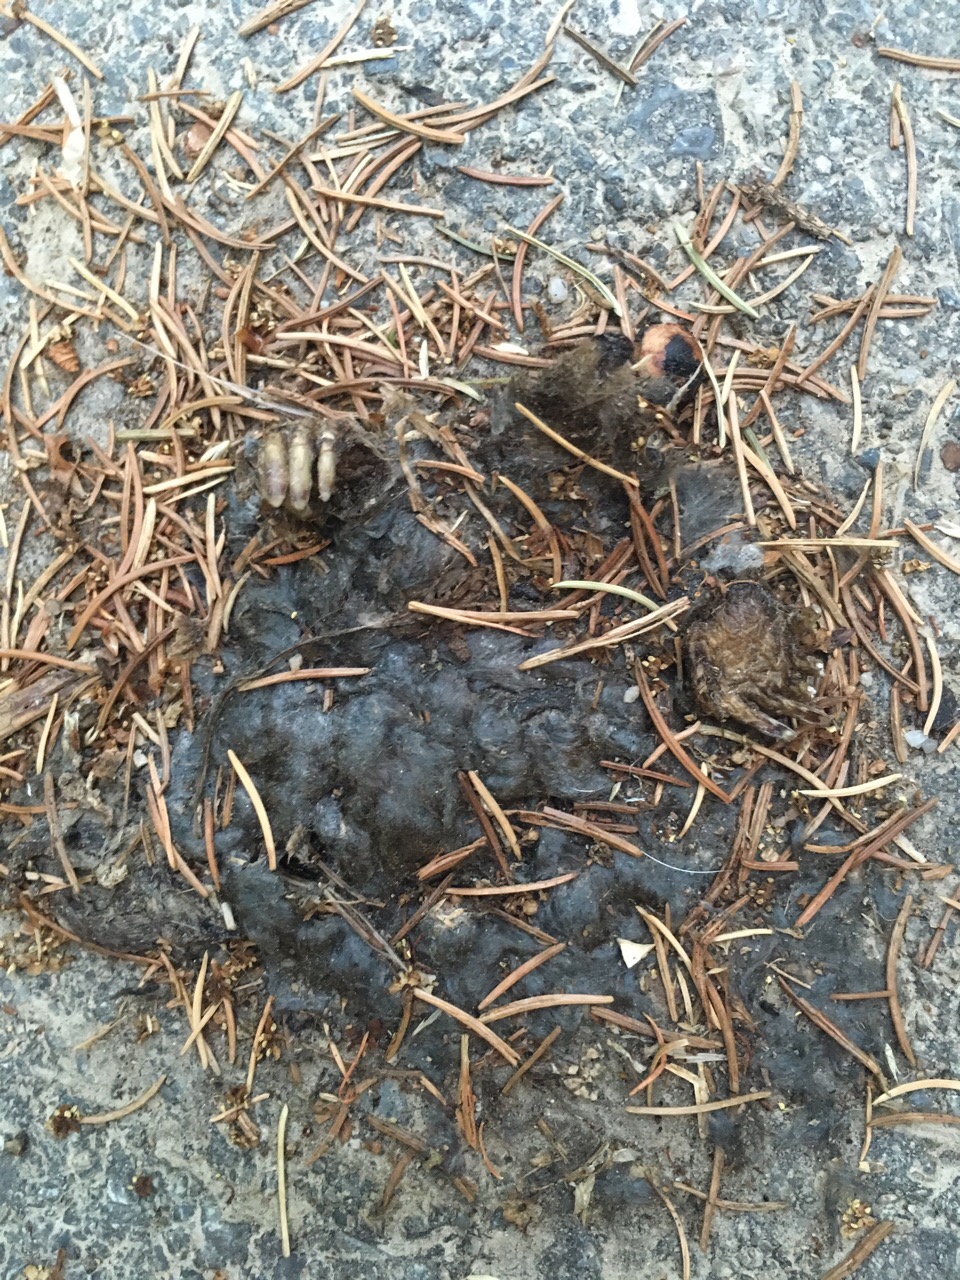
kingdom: Animalia
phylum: Chordata
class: Mammalia
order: Soricomorpha
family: Talpidae
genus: Talpa
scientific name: Talpa europaea
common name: European mole
